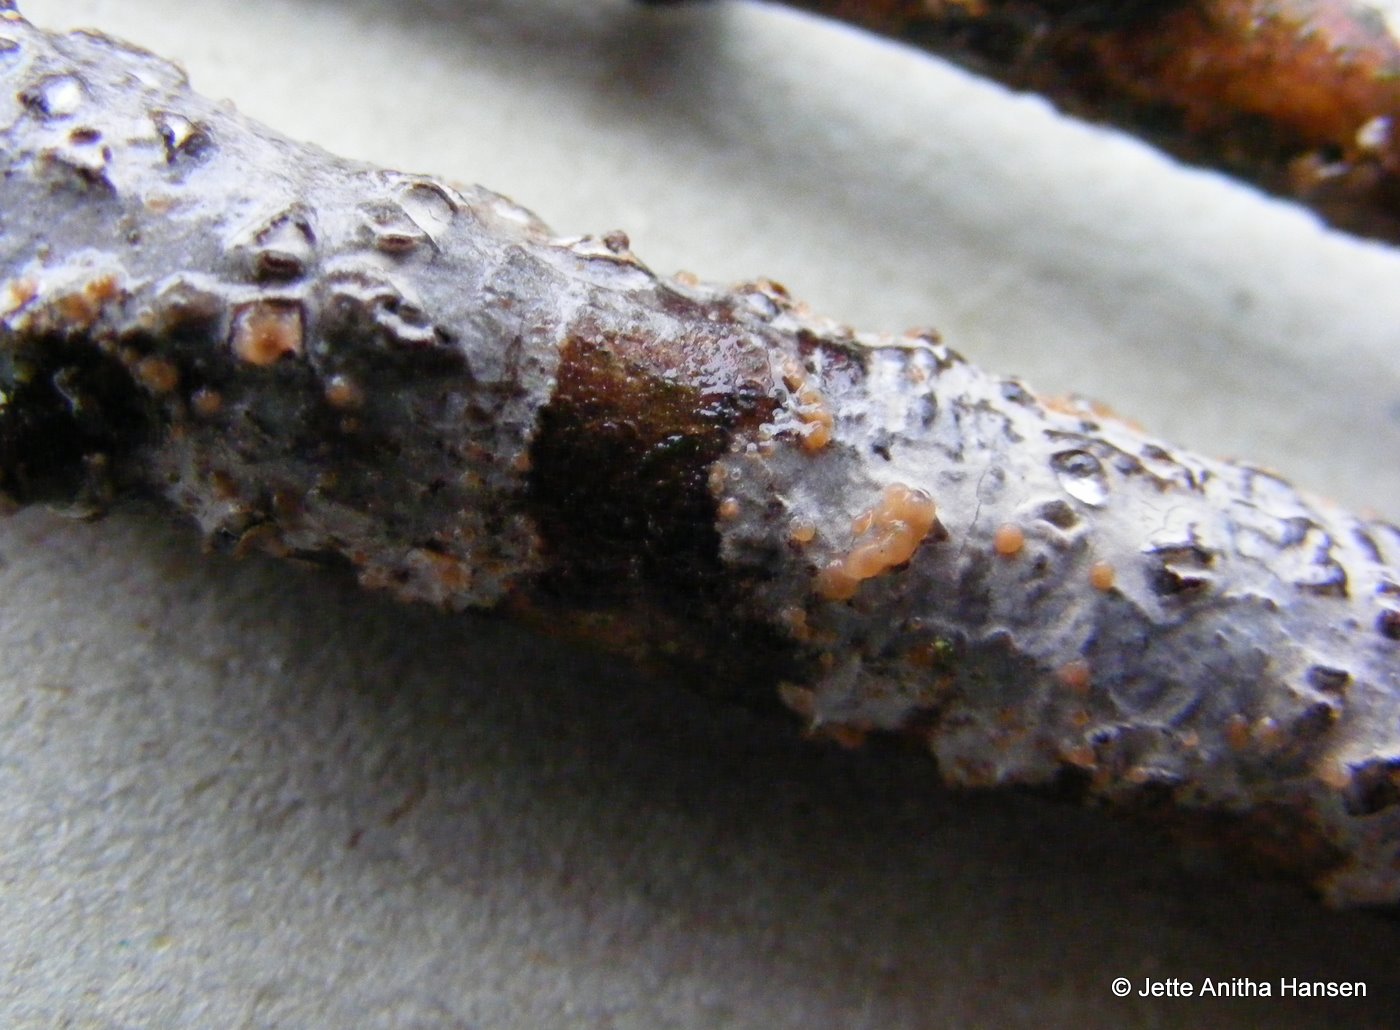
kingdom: Fungi
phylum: Basidiomycota
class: Tremellomycetes
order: Tremellales
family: Tremellaceae
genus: Tremella
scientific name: Tremella versicolor
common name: voksskind-bævresvamp
